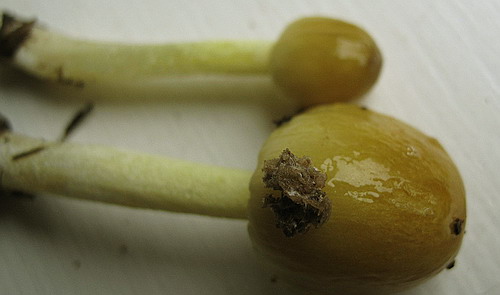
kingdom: Fungi
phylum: Basidiomycota
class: Agaricomycetes
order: Agaricales
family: Bolbitiaceae
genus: Bolbitius
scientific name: Bolbitius titubans
